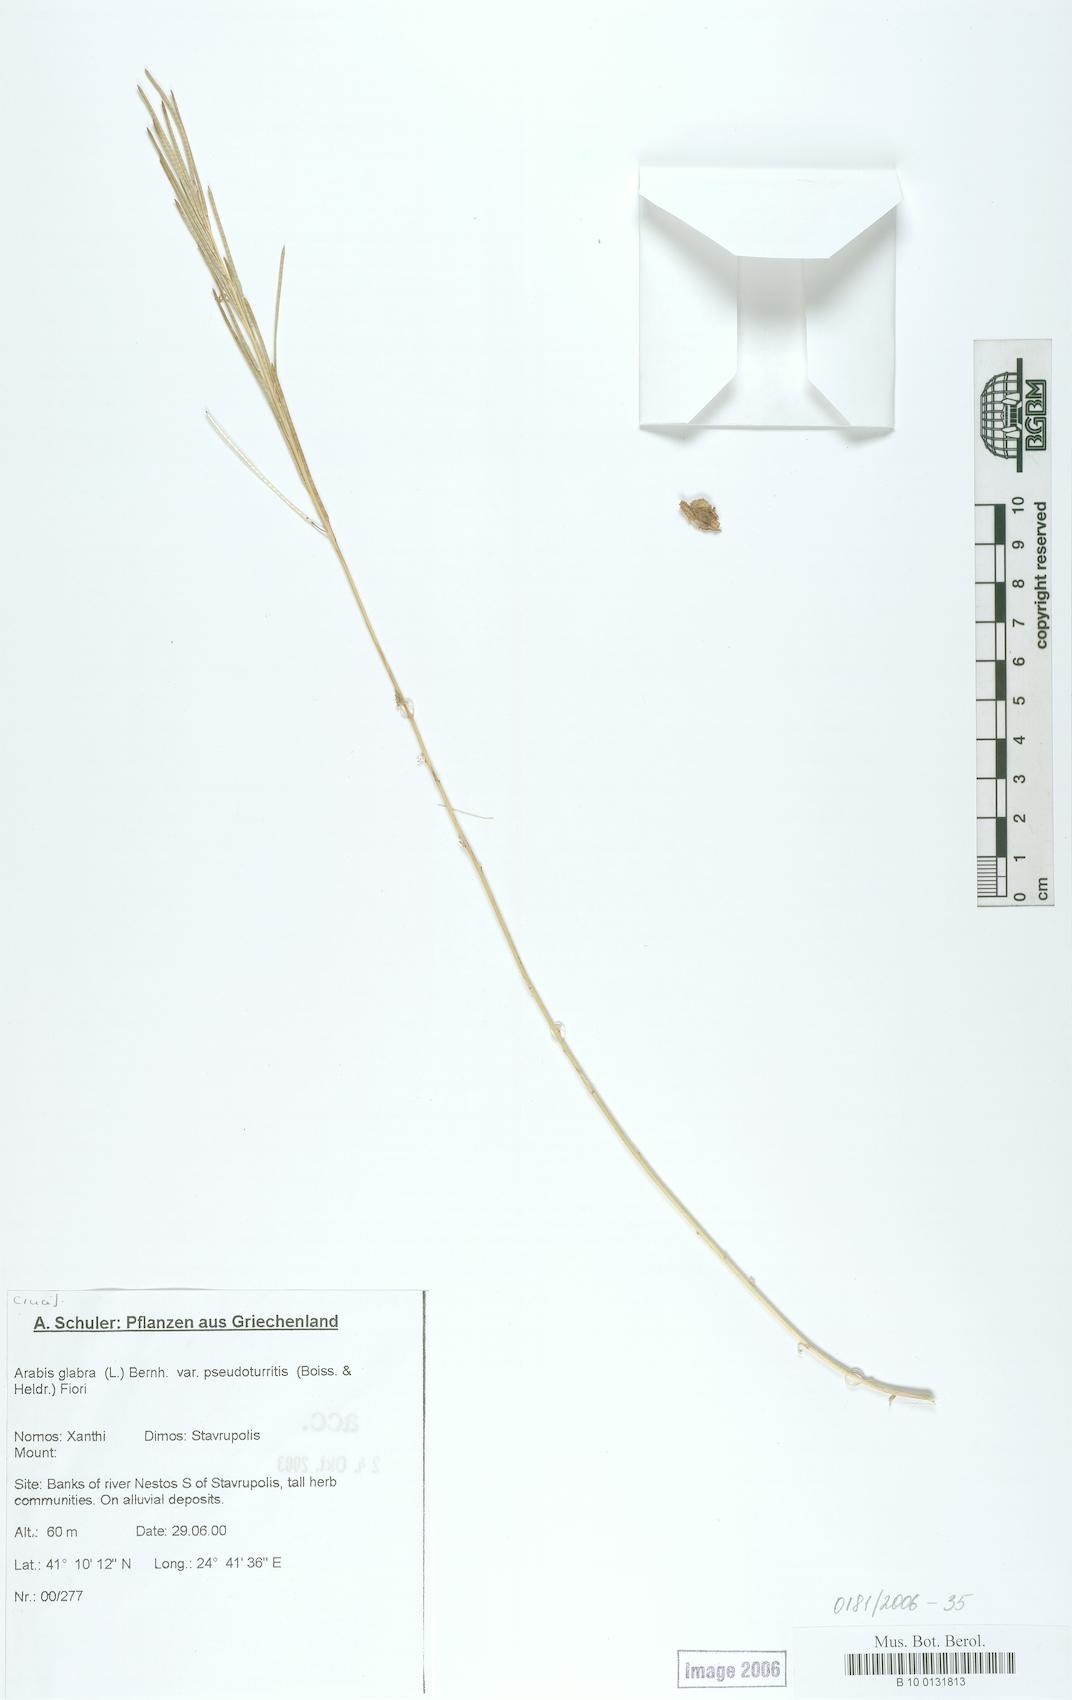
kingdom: Plantae
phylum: Tracheophyta
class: Magnoliopsida
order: Brassicales
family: Brassicaceae
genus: Turritis
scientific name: Turritis glabra
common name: Tower rockcress
